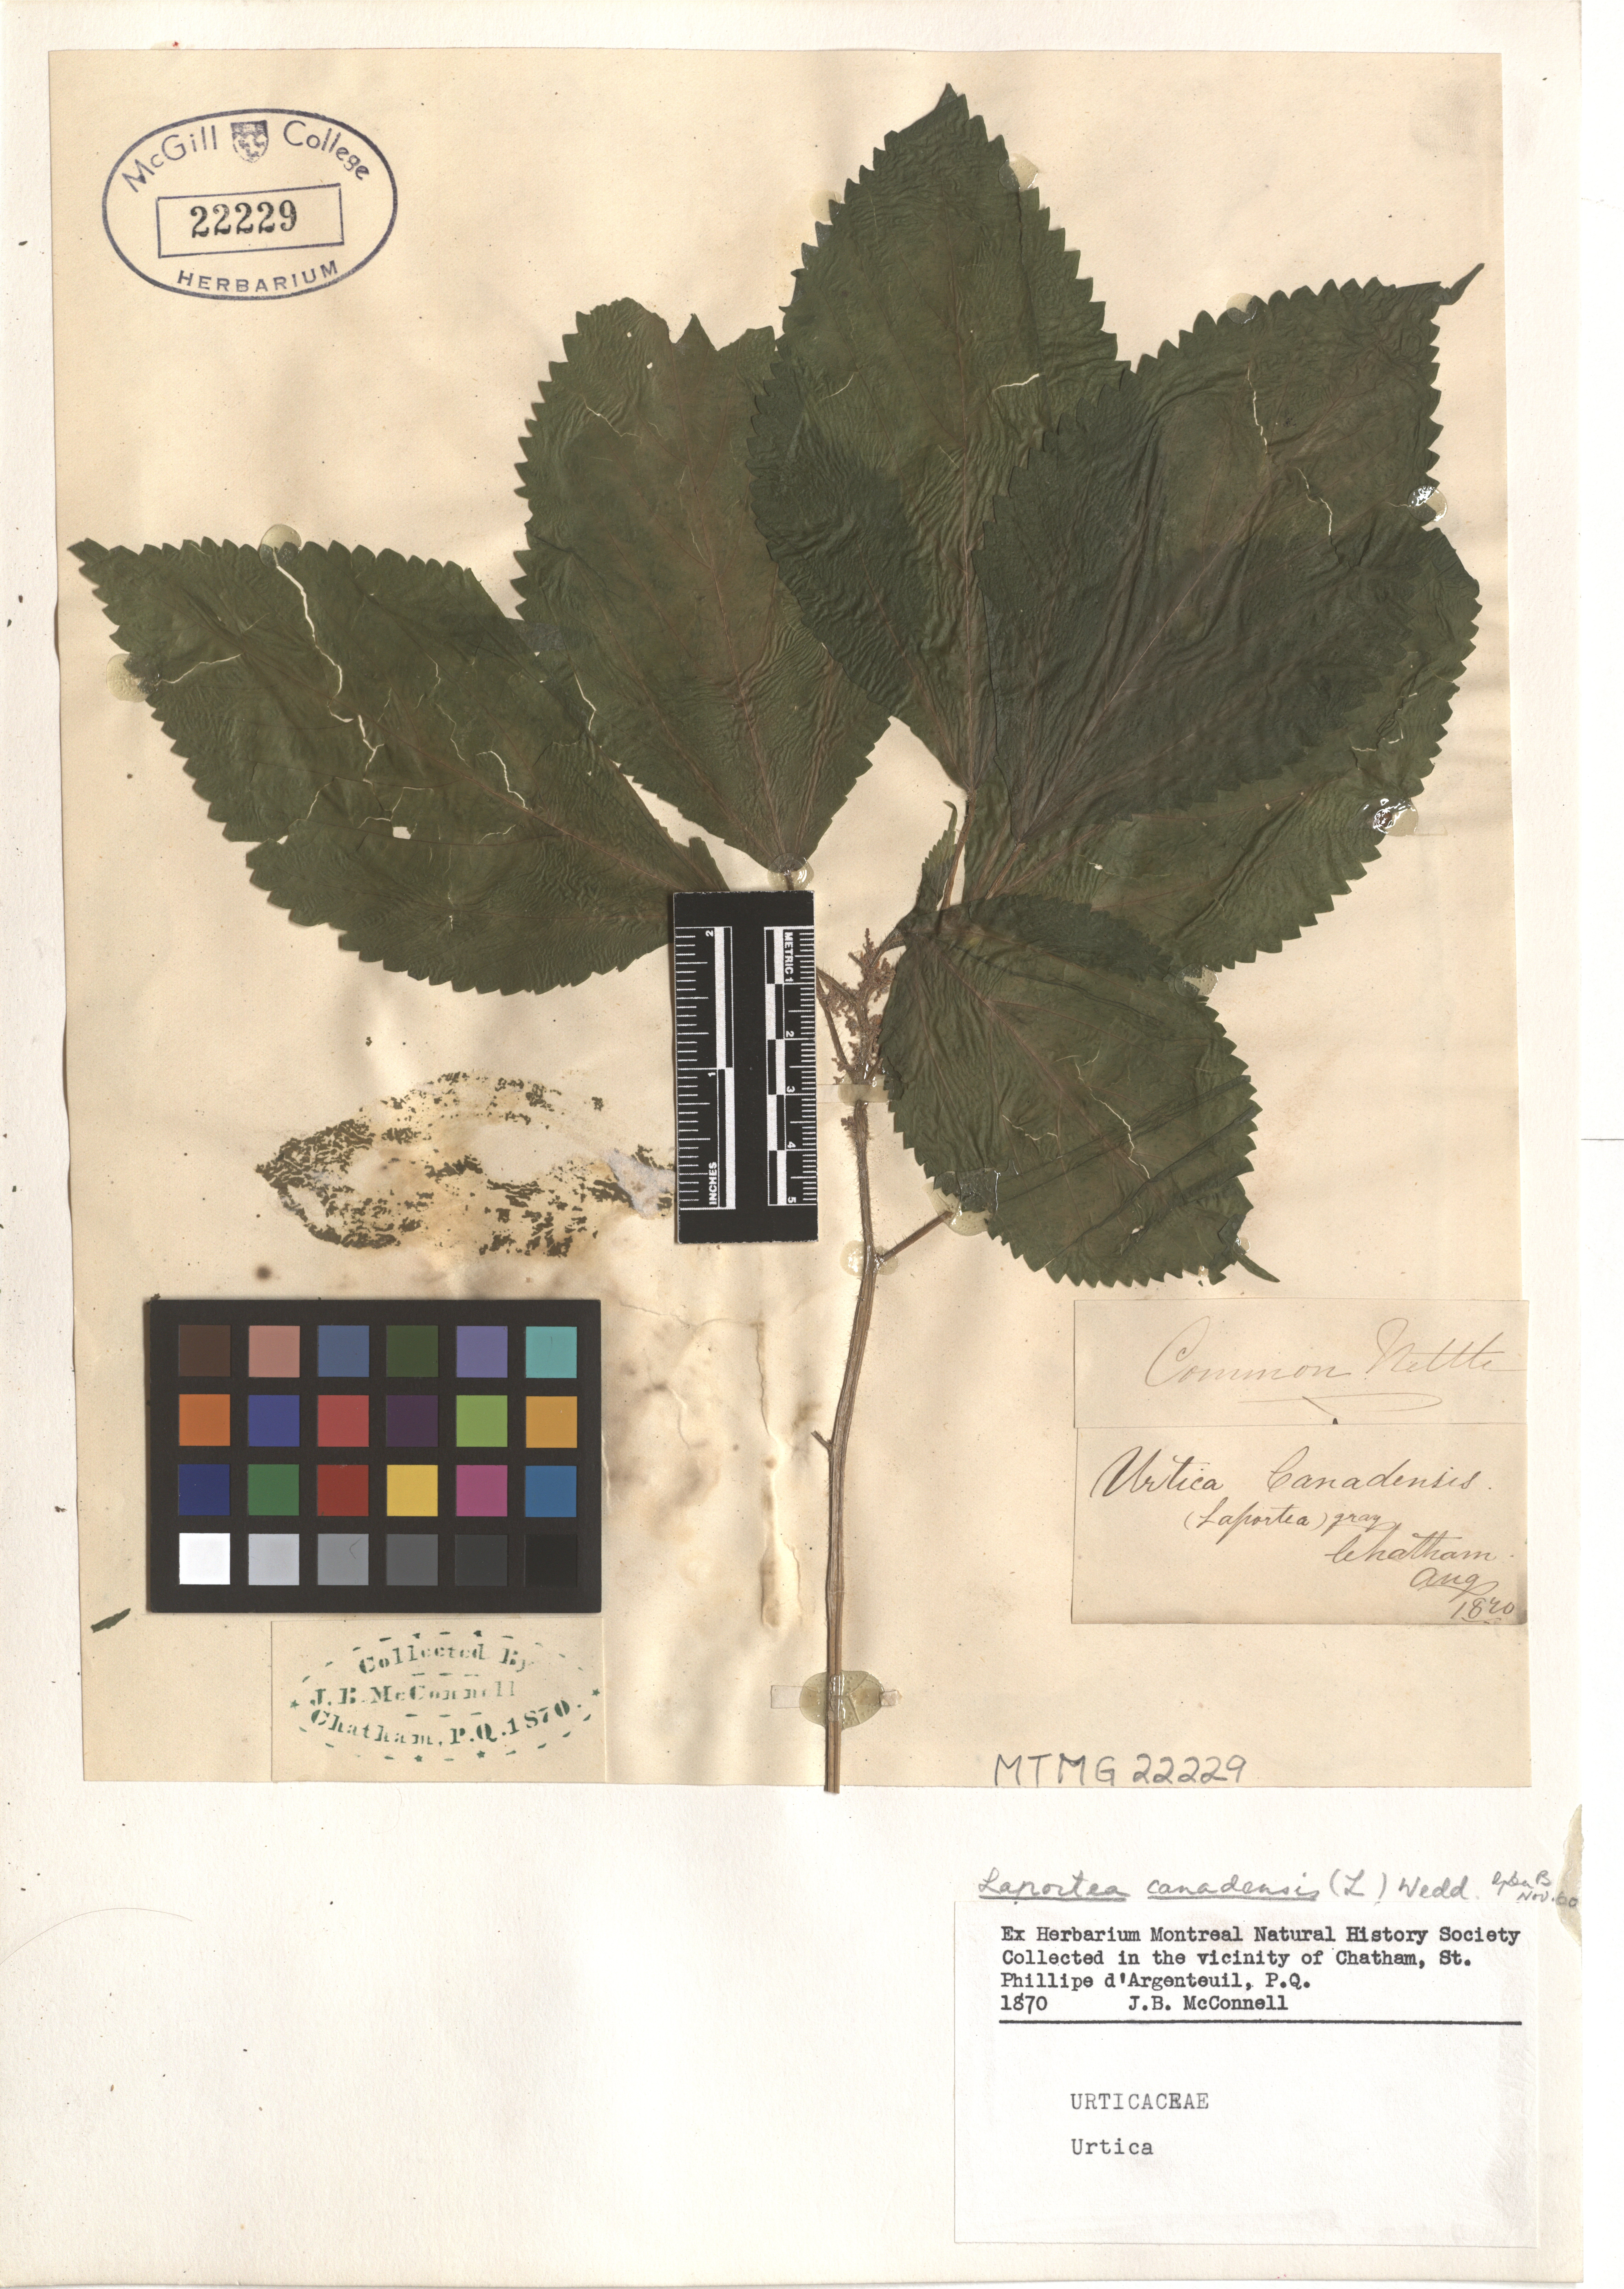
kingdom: Plantae
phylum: Tracheophyta
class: Magnoliopsida
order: Rosales
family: Urticaceae
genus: Laportea
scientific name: Laportea canadensis
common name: Canada nettle
